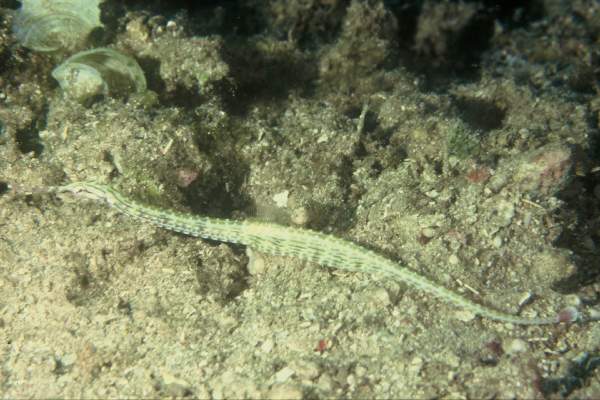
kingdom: Animalia
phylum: Chordata
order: Syngnathiformes
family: Syngnathidae
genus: Corythoichthys
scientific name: Corythoichthys schultzi
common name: Guilded pipefish
